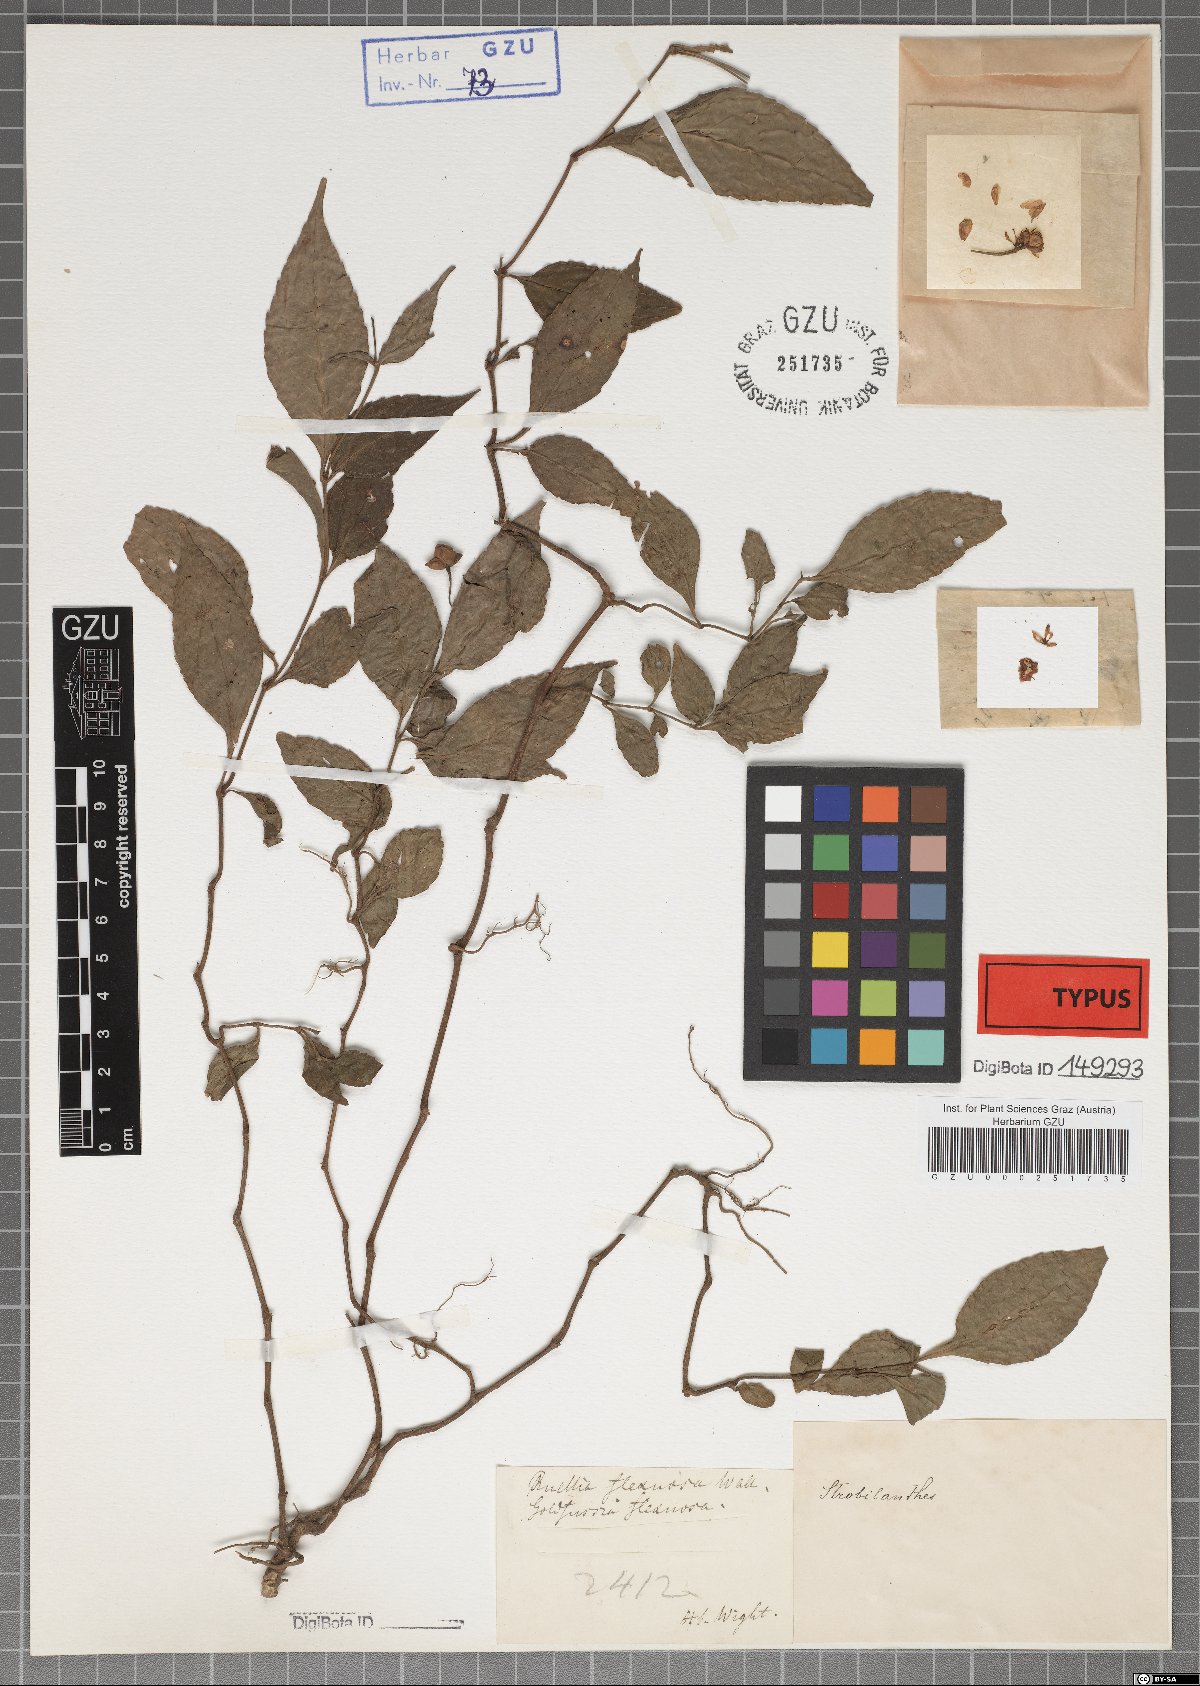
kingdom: Plantae
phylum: Tracheophyta
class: Magnoliopsida
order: Lamiales
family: Acanthaceae
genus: Strobilanthes
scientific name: Strobilanthes pentastemonoides
